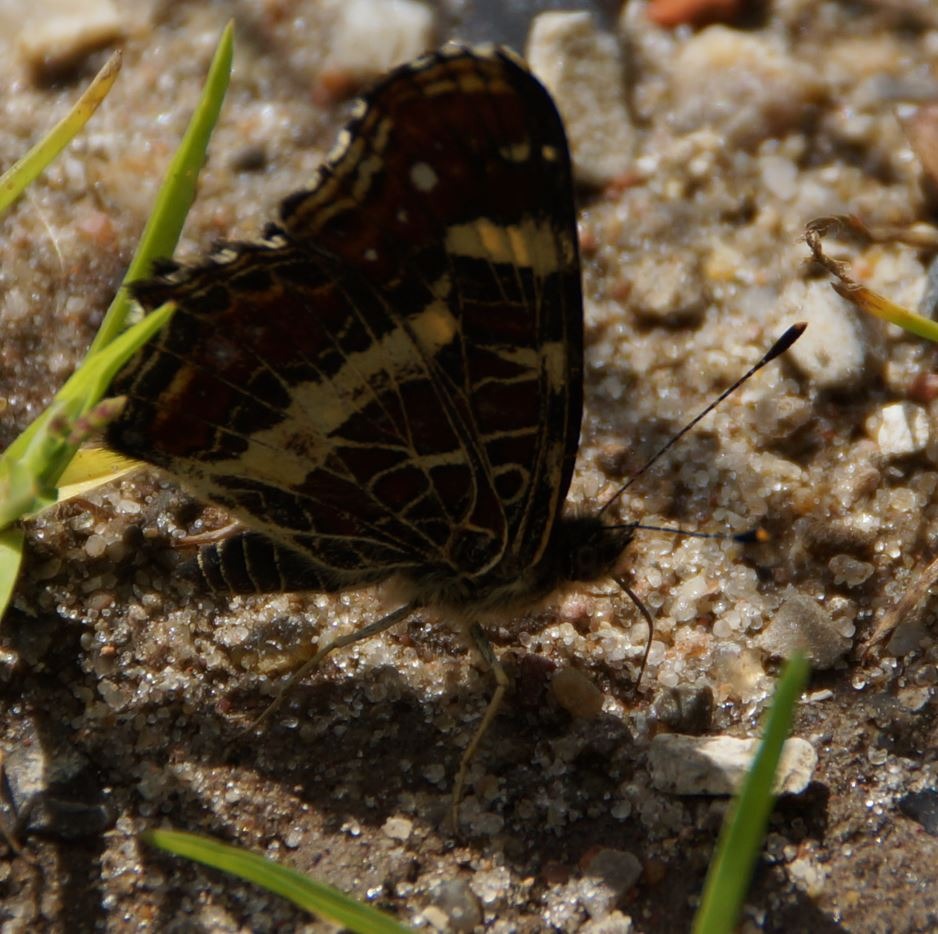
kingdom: Animalia
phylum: Arthropoda
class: Insecta
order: Lepidoptera
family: Nymphalidae
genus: Araschnia
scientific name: Araschnia levana
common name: Nældesommerfugl
